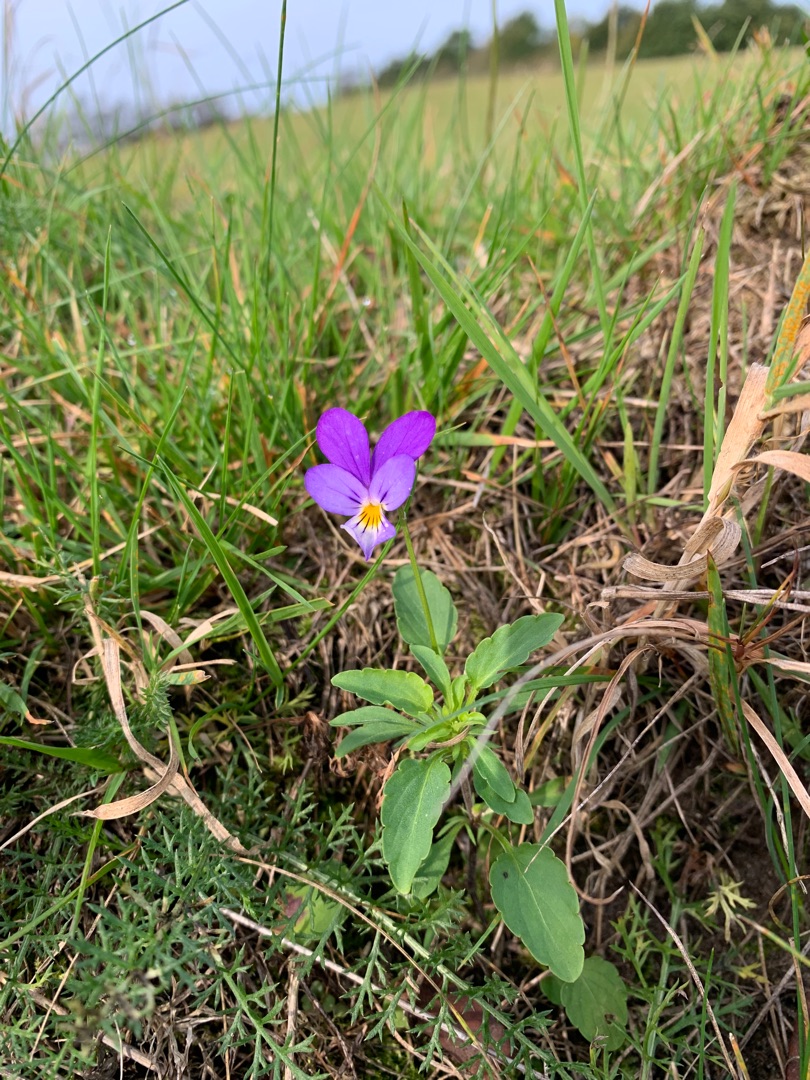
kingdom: Plantae
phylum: Tracheophyta
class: Magnoliopsida
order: Malpighiales
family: Violaceae
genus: Viola
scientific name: Viola tricolor
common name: Stedmoderblomst
